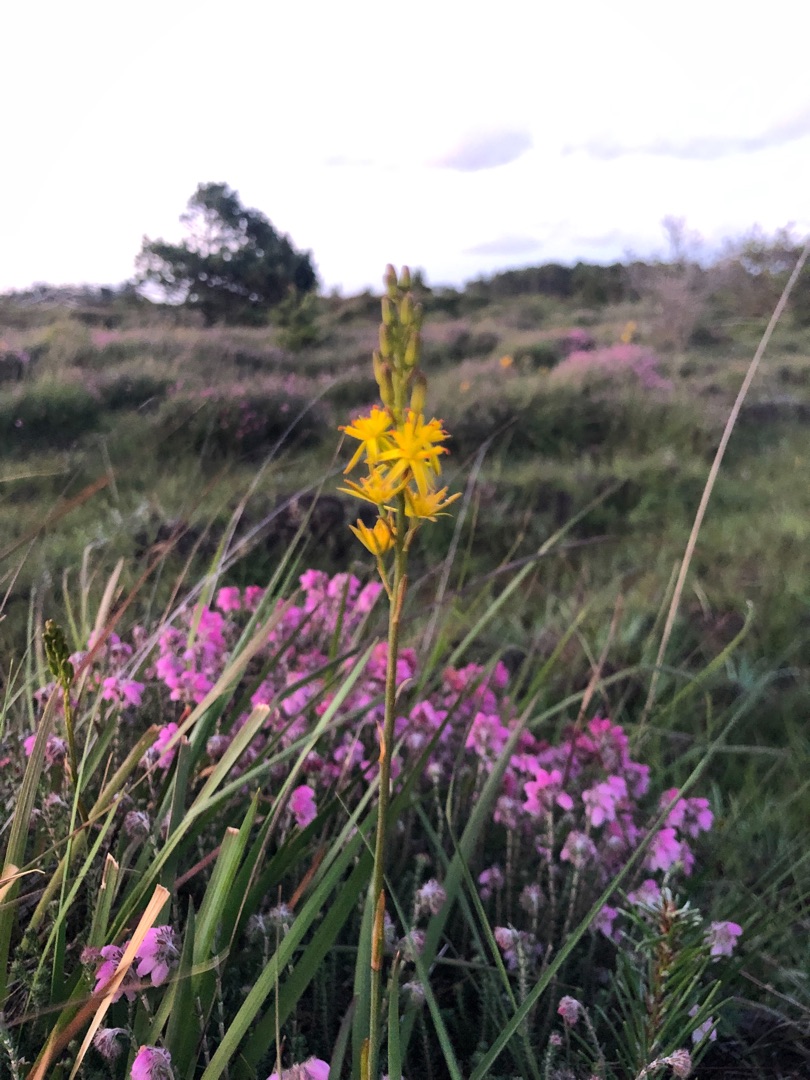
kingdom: Plantae
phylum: Tracheophyta
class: Liliopsida
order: Dioscoreales
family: Nartheciaceae
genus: Narthecium
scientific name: Narthecium ossifragum
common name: Benbræk
